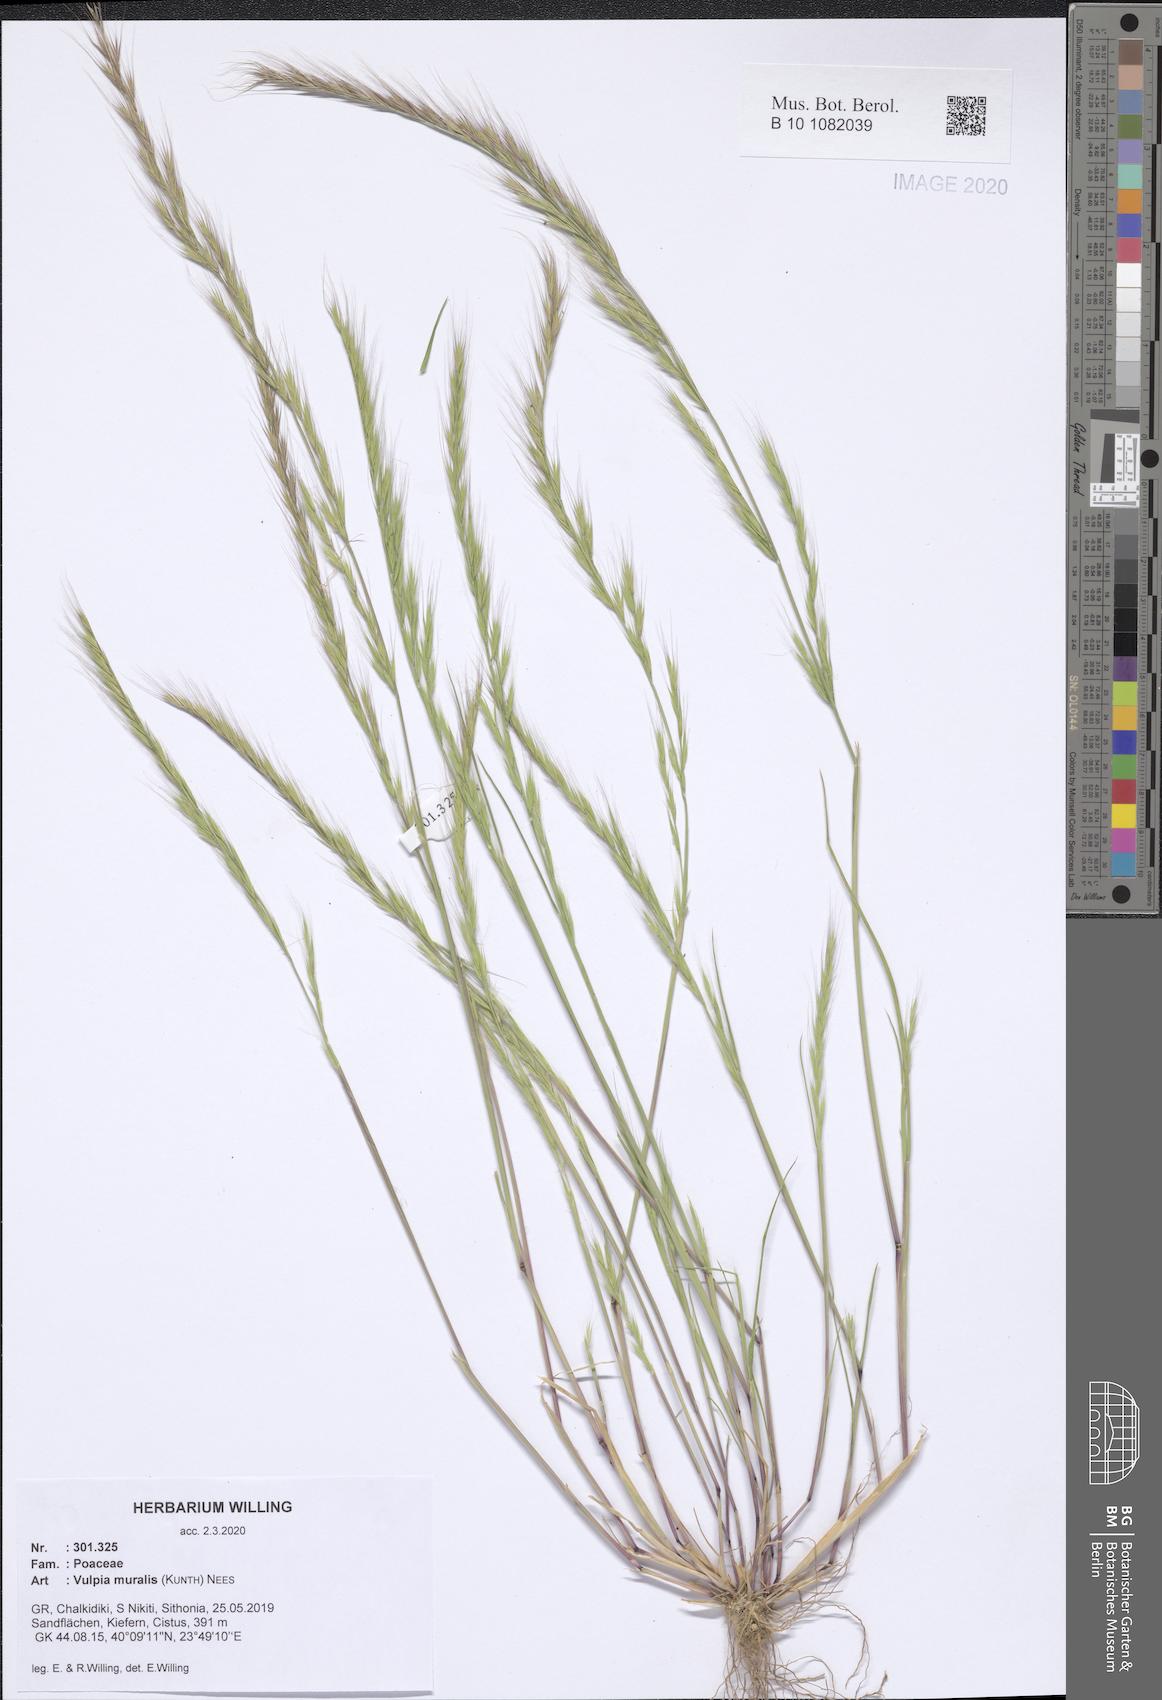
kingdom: Plantae
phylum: Tracheophyta
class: Liliopsida
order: Poales
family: Poaceae
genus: Festuca
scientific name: Festuca muralis
